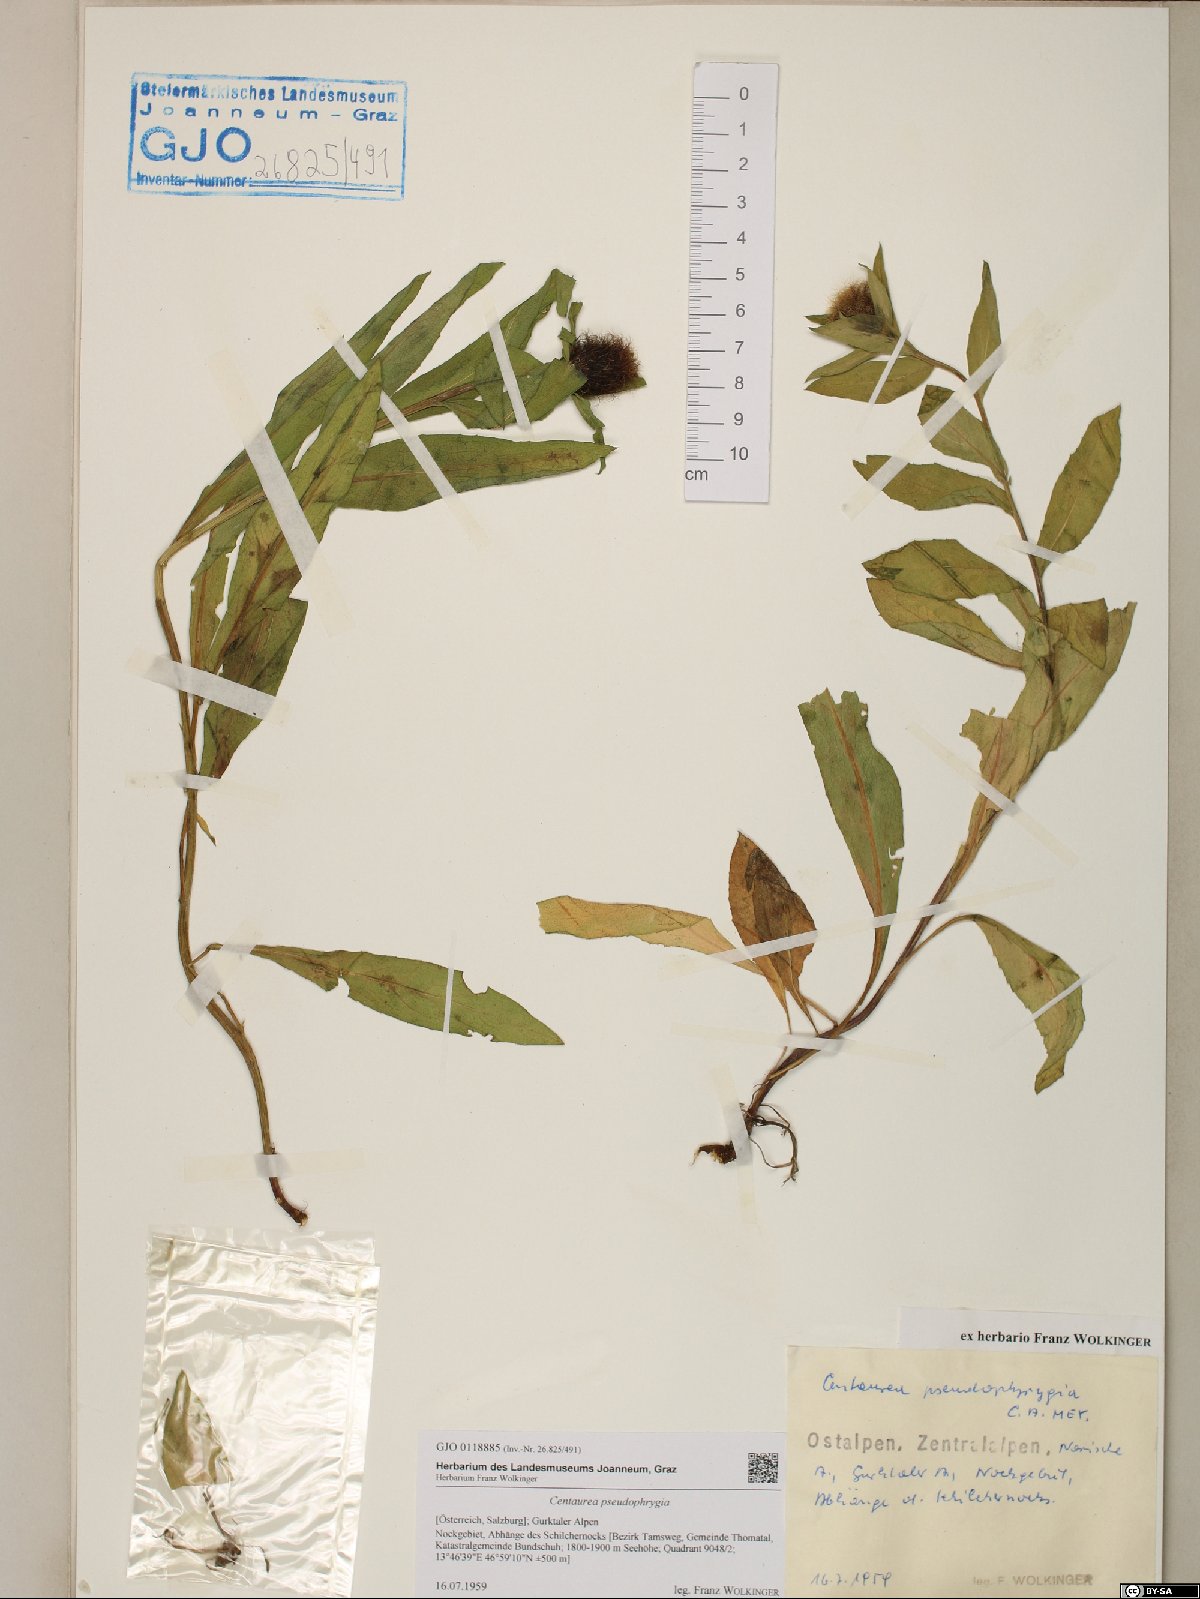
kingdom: Plantae
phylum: Tracheophyta
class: Magnoliopsida
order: Asterales
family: Asteraceae
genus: Centaurea
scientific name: Centaurea pseudophrygia
